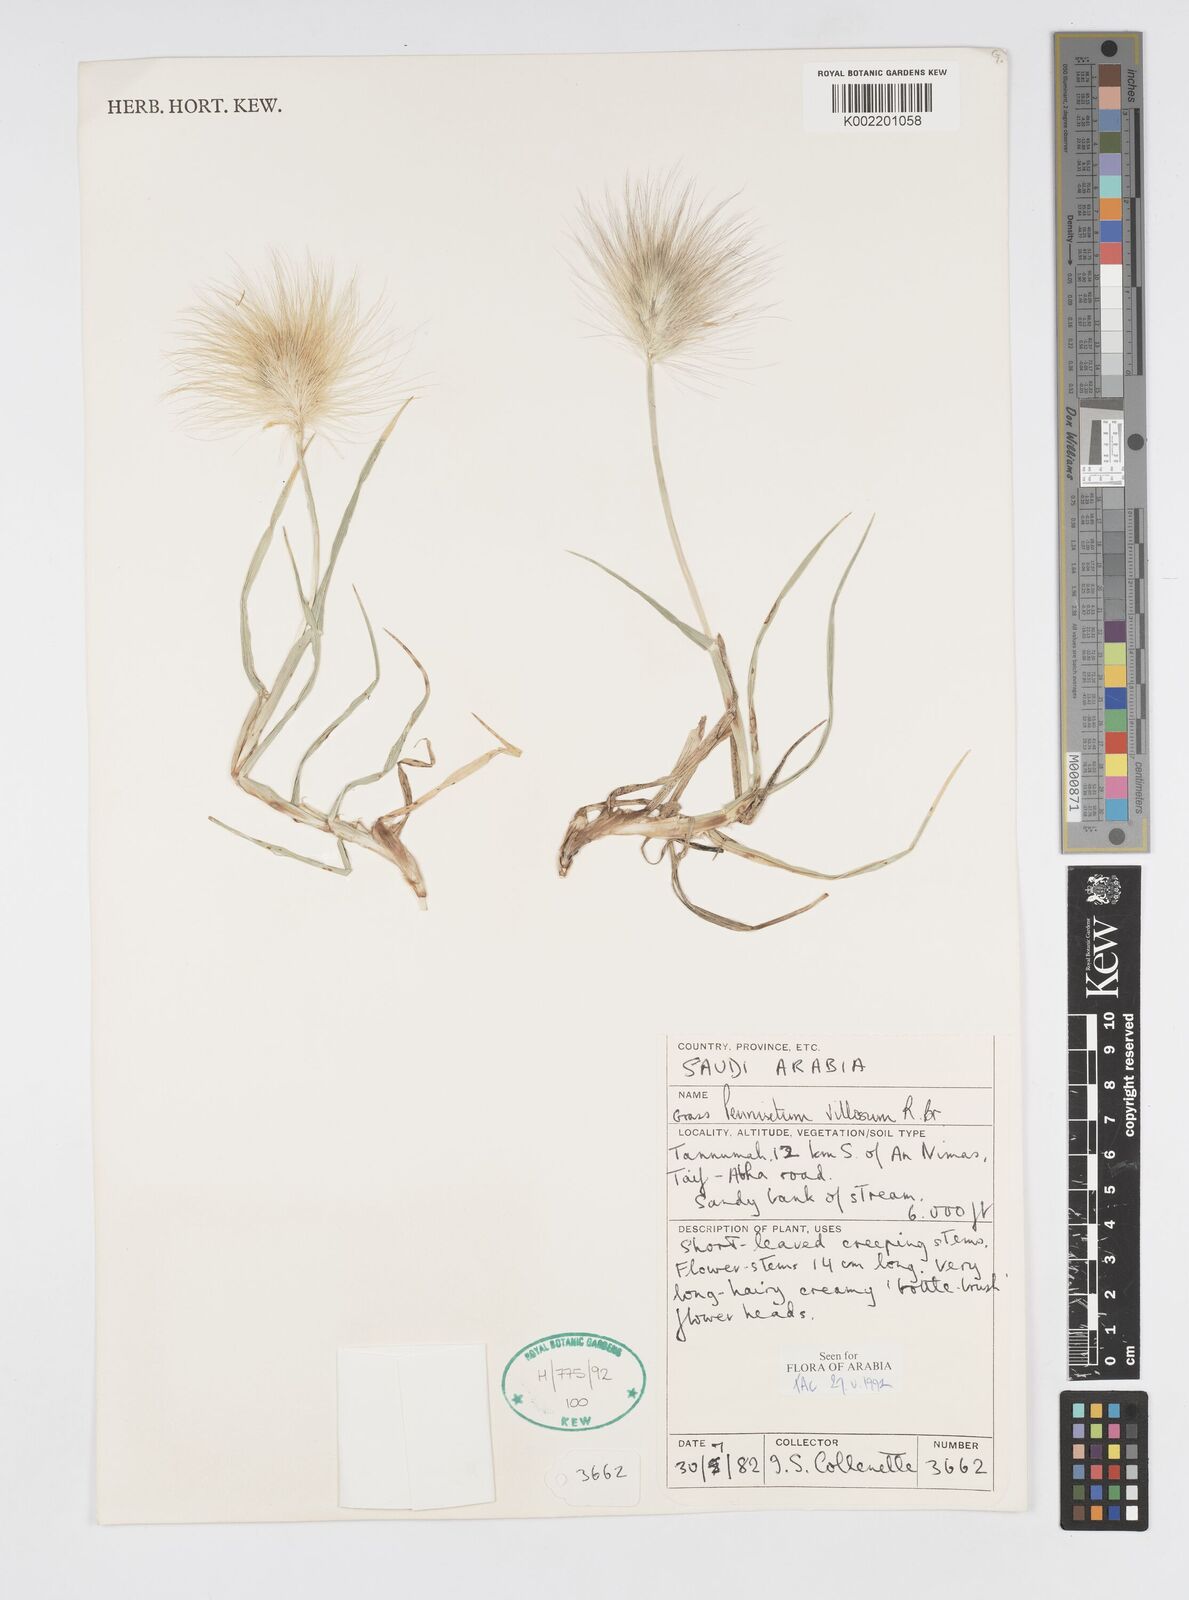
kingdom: Plantae
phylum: Tracheophyta
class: Liliopsida
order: Poales
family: Poaceae
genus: Cenchrus
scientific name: Cenchrus longisetus
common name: Feathertop
